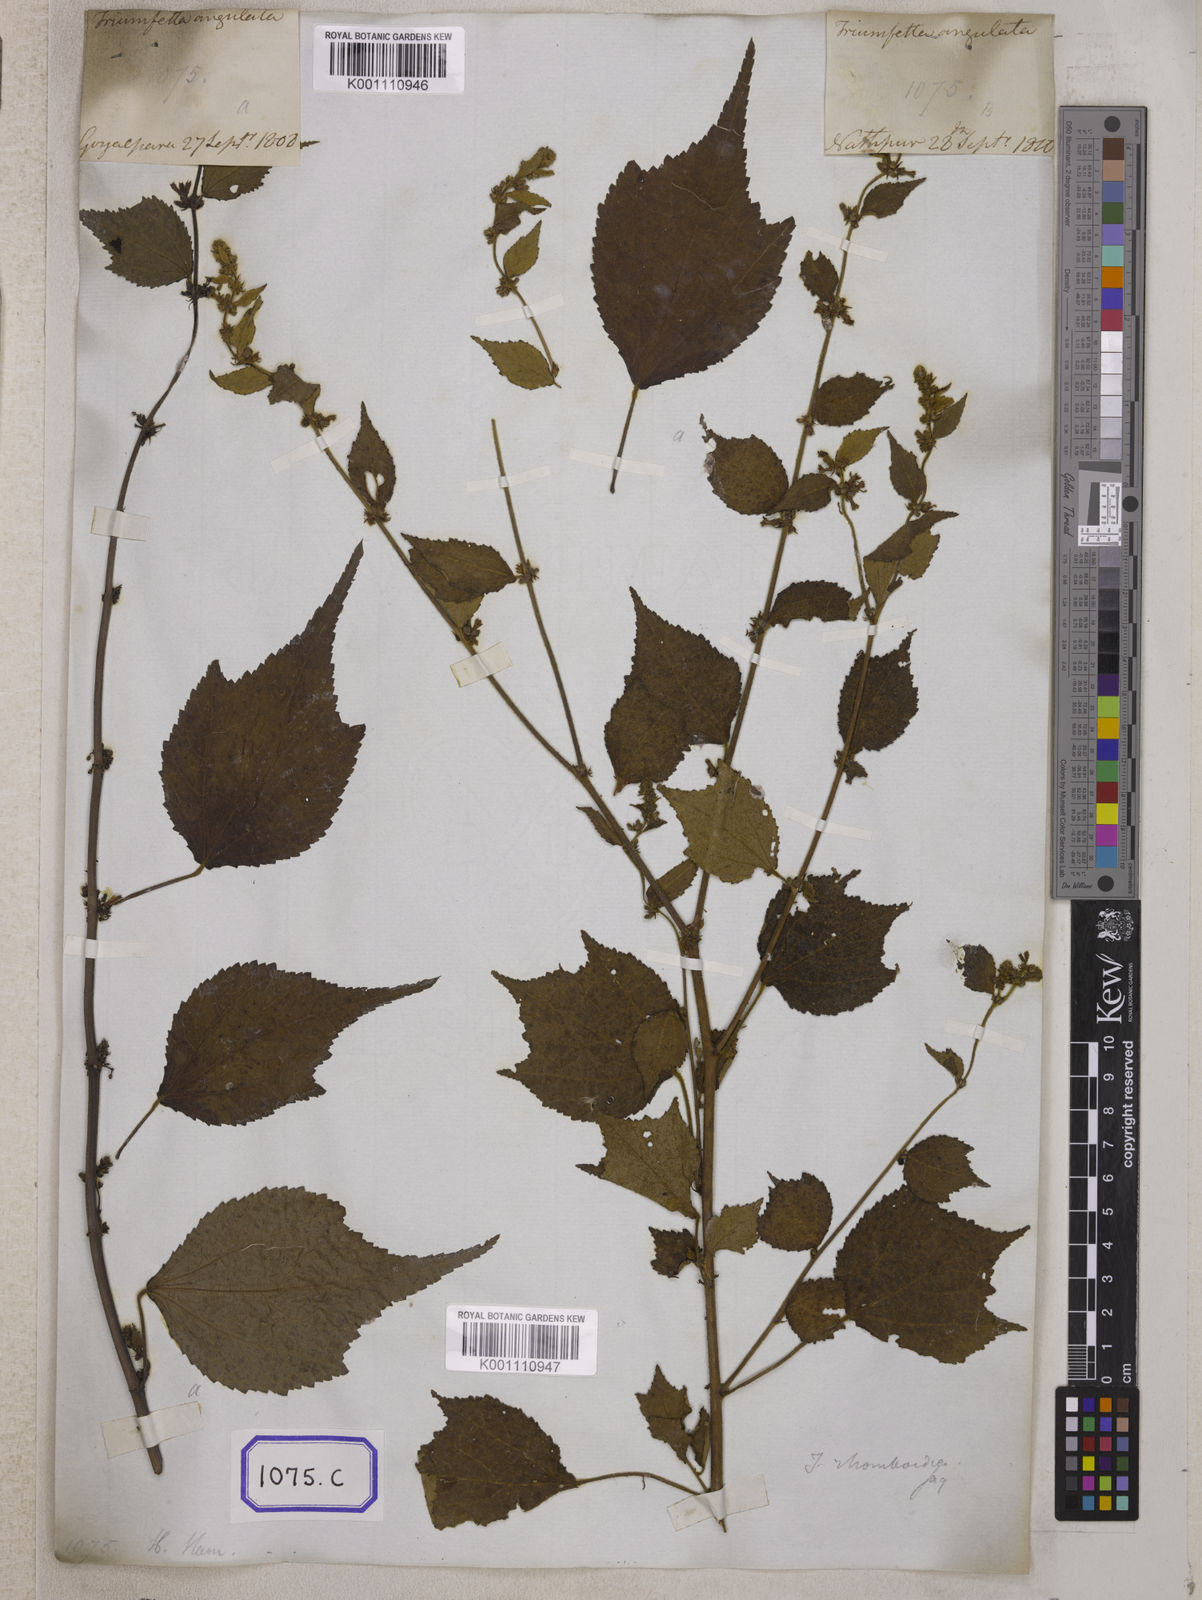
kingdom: Plantae
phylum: Tracheophyta
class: Magnoliopsida
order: Malvales
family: Malvaceae
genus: Triumfetta
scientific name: Triumfetta rhomboidea
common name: Diamond burbark
